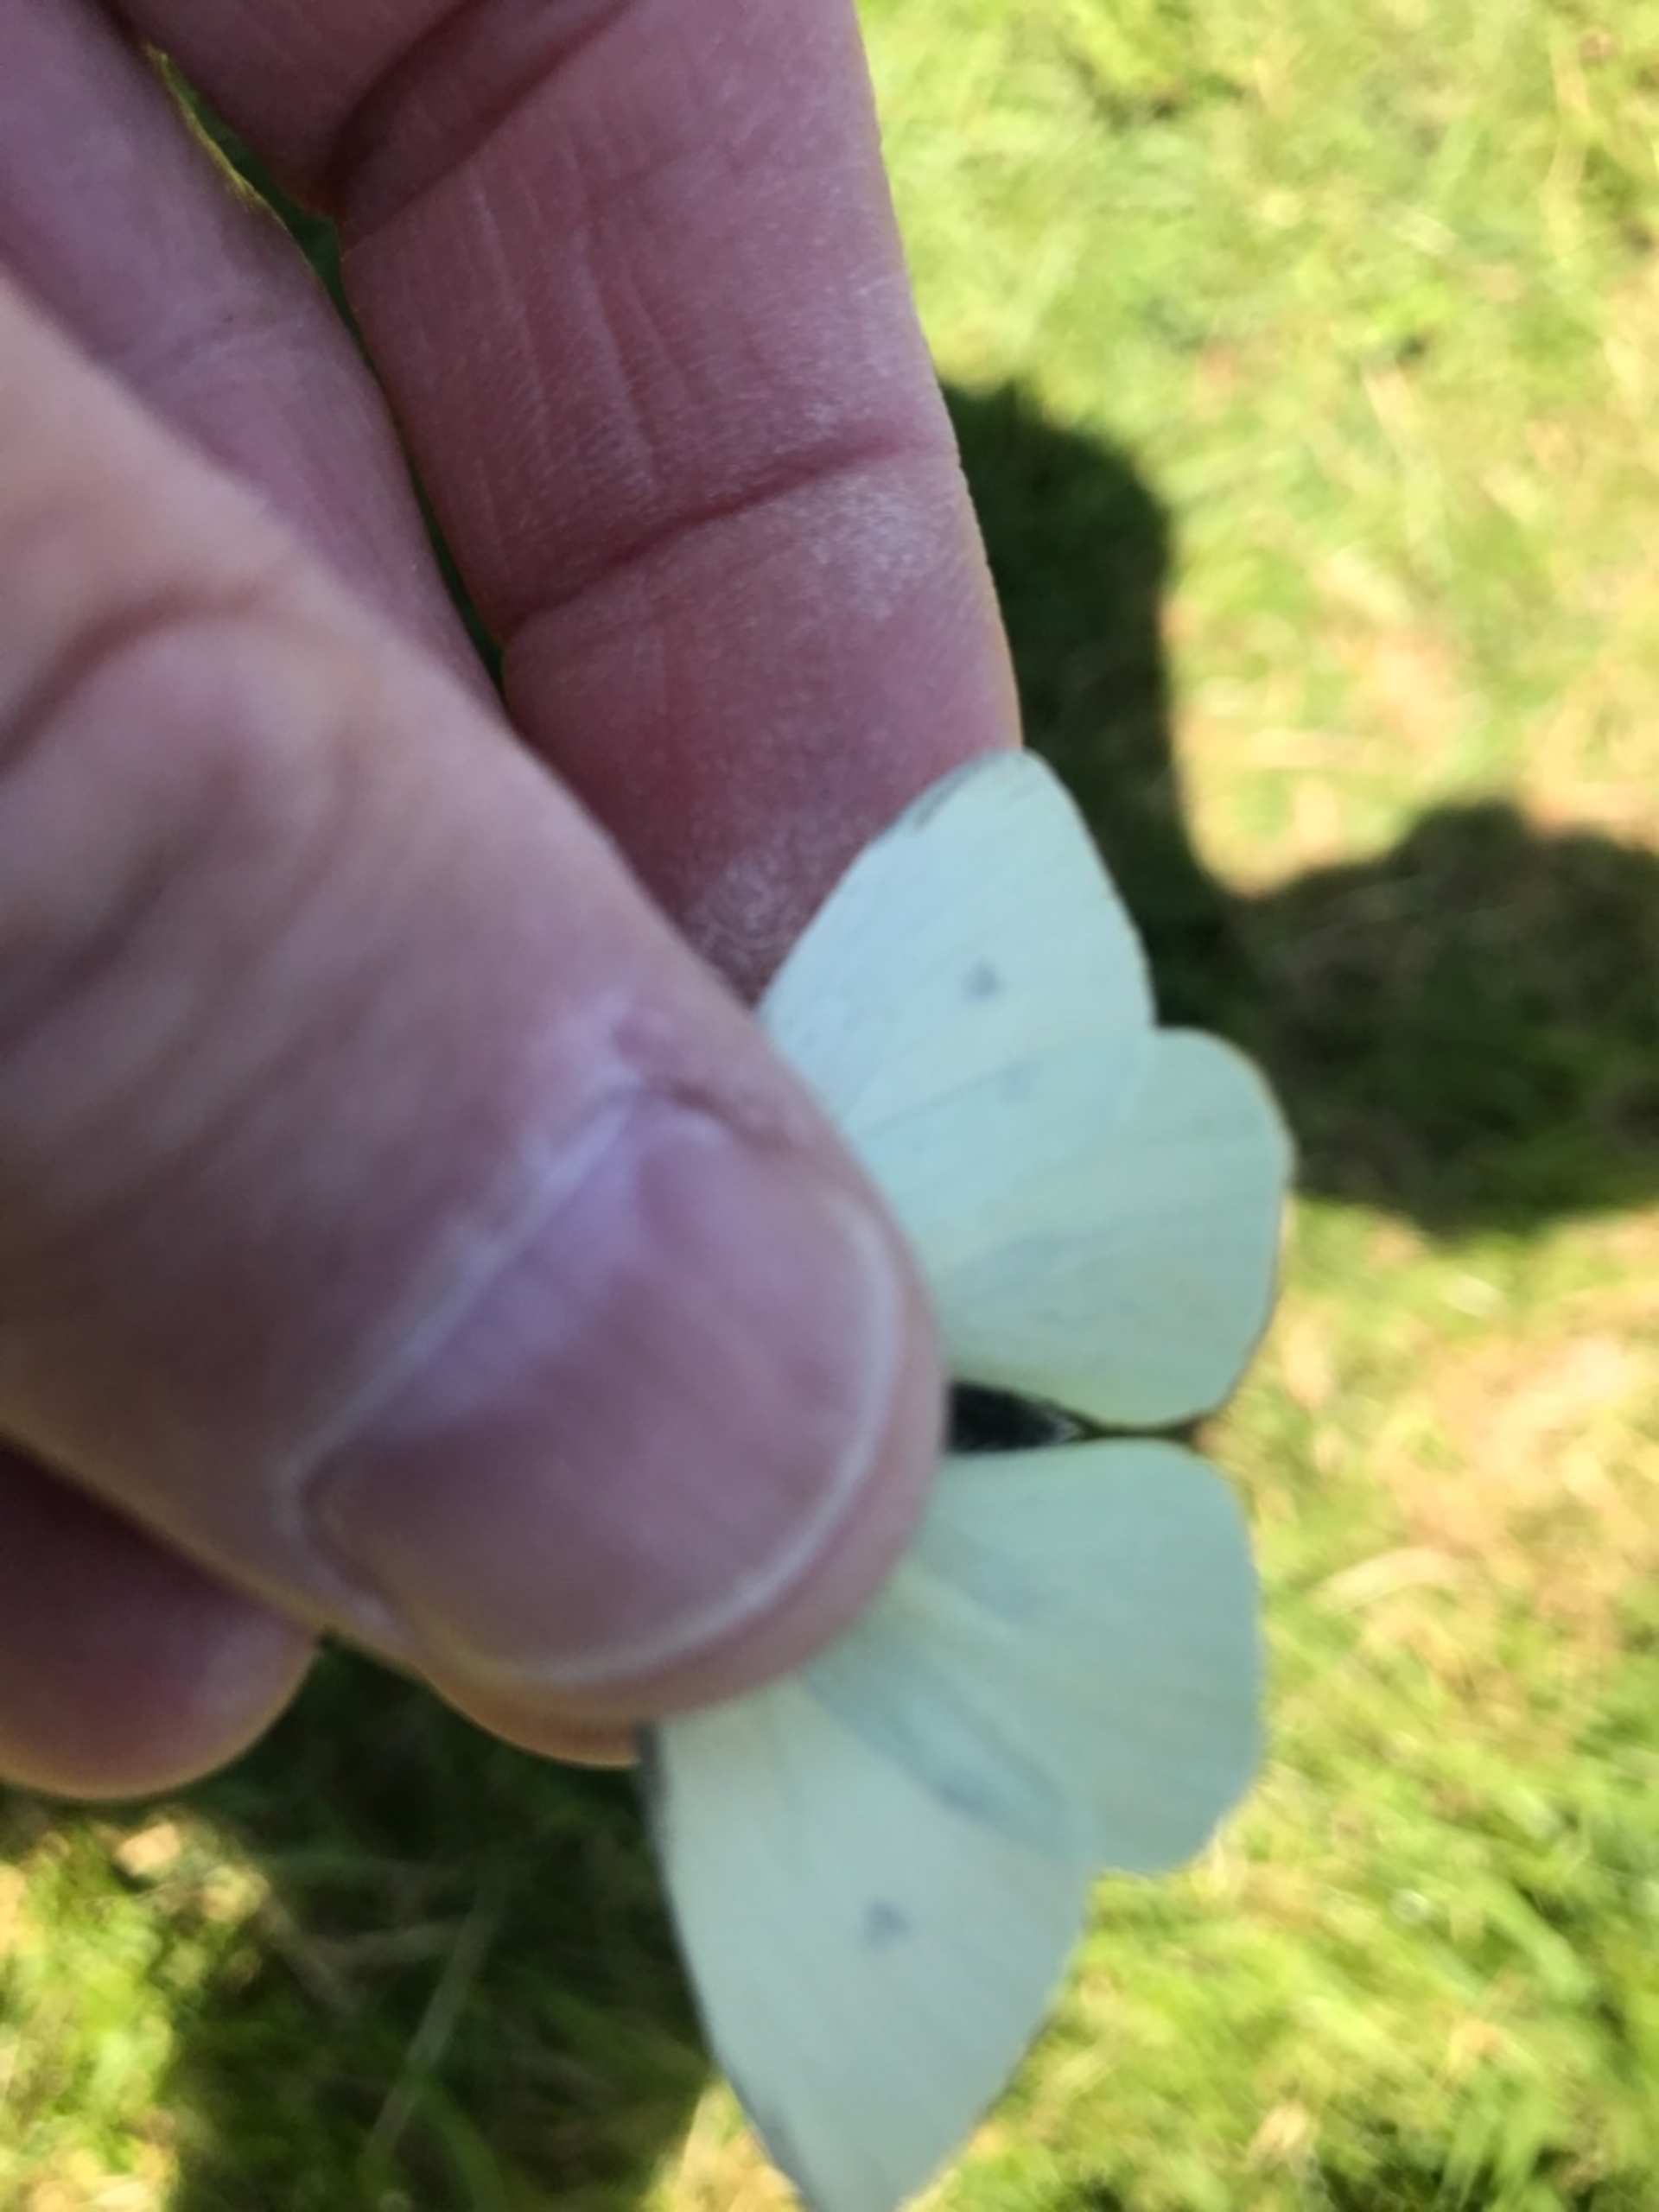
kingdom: Animalia
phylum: Arthropoda
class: Insecta
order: Lepidoptera
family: Pieridae
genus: Pieris
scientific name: Pieris rapae
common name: Lille kålsommerfugl
